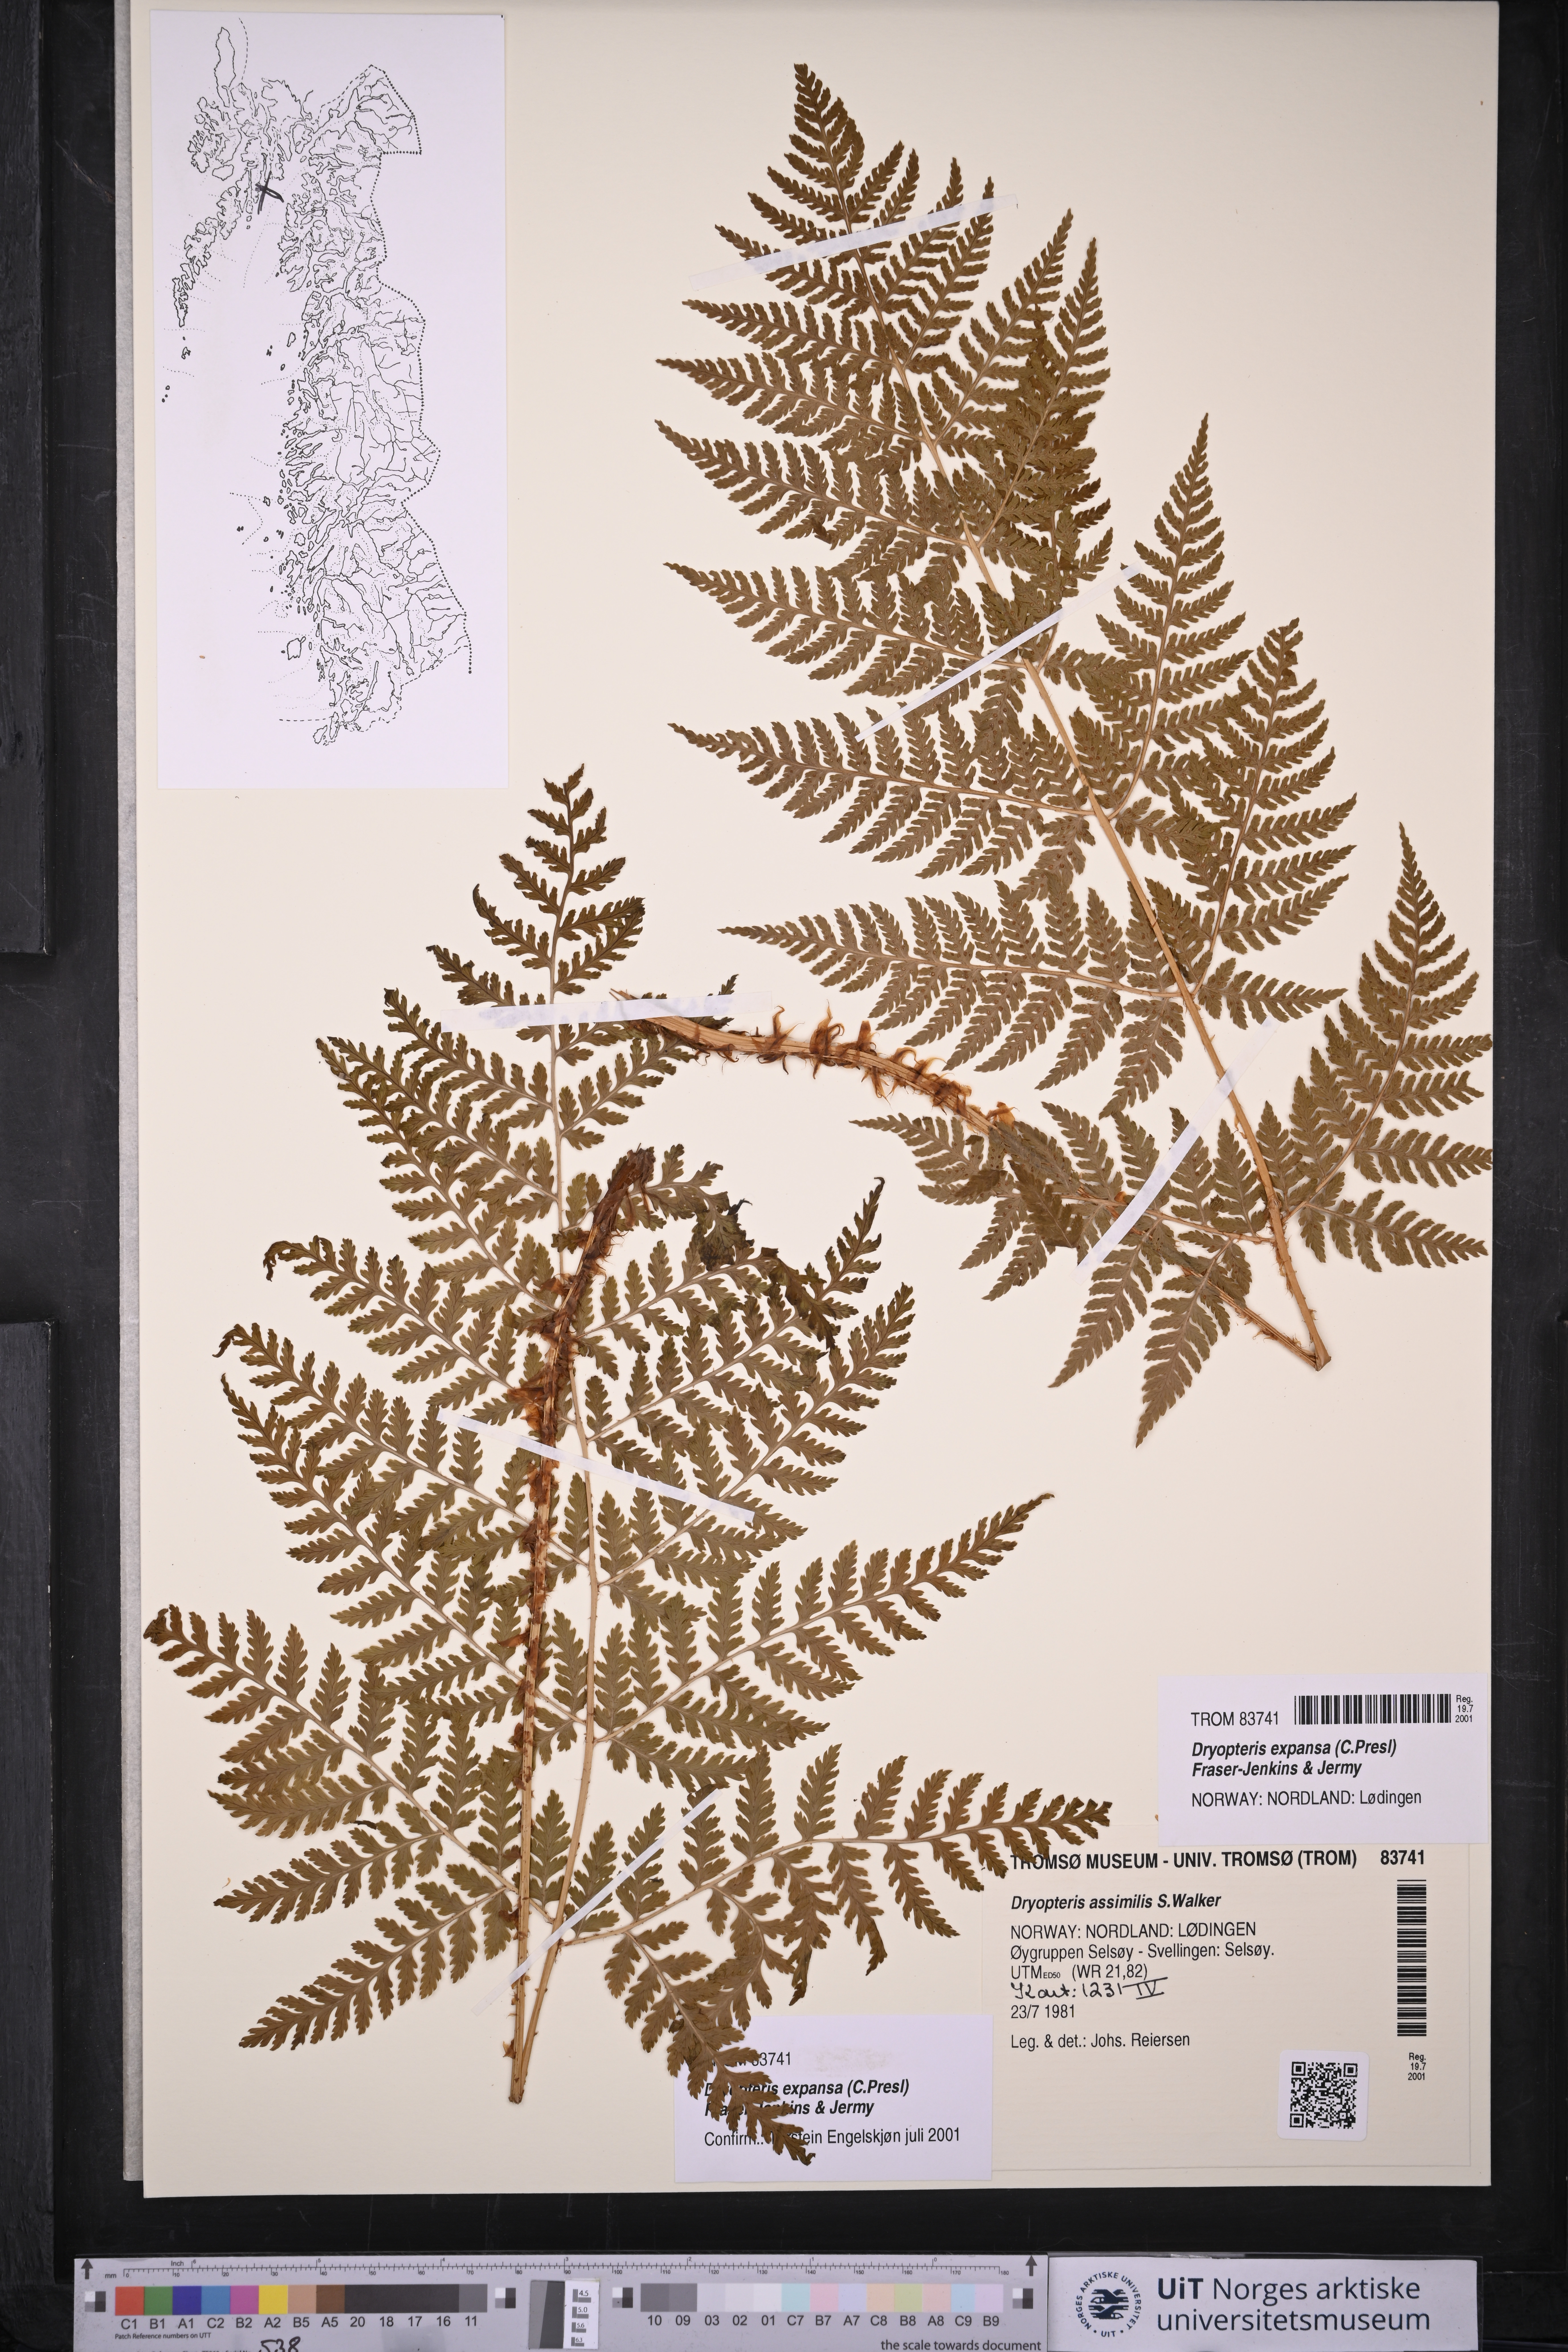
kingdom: Plantae
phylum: Tracheophyta
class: Polypodiopsida
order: Polypodiales
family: Dryopteridaceae
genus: Dryopteris
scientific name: Dryopteris expansa
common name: Northern buckler fern
